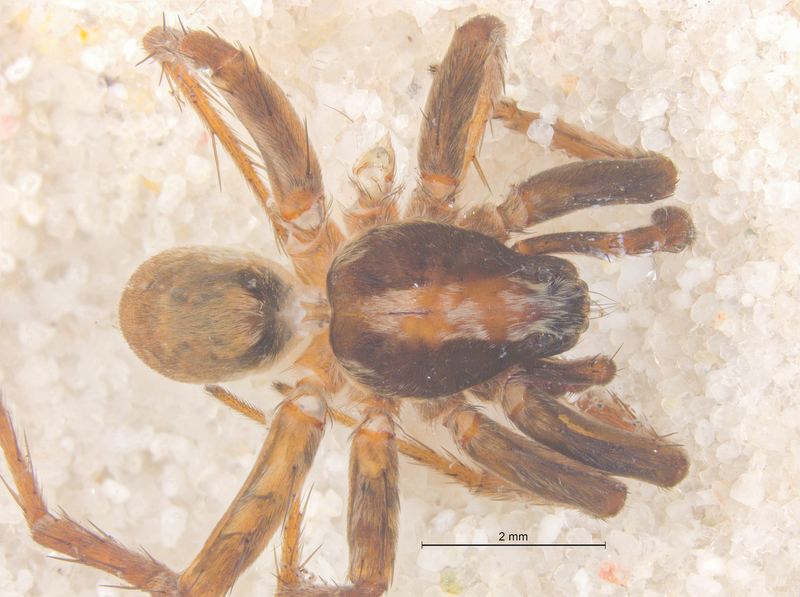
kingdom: Animalia
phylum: Arthropoda
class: Arachnida
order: Araneae
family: Lycosidae
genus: Xerolycosa
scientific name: Xerolycosa nemoralis
